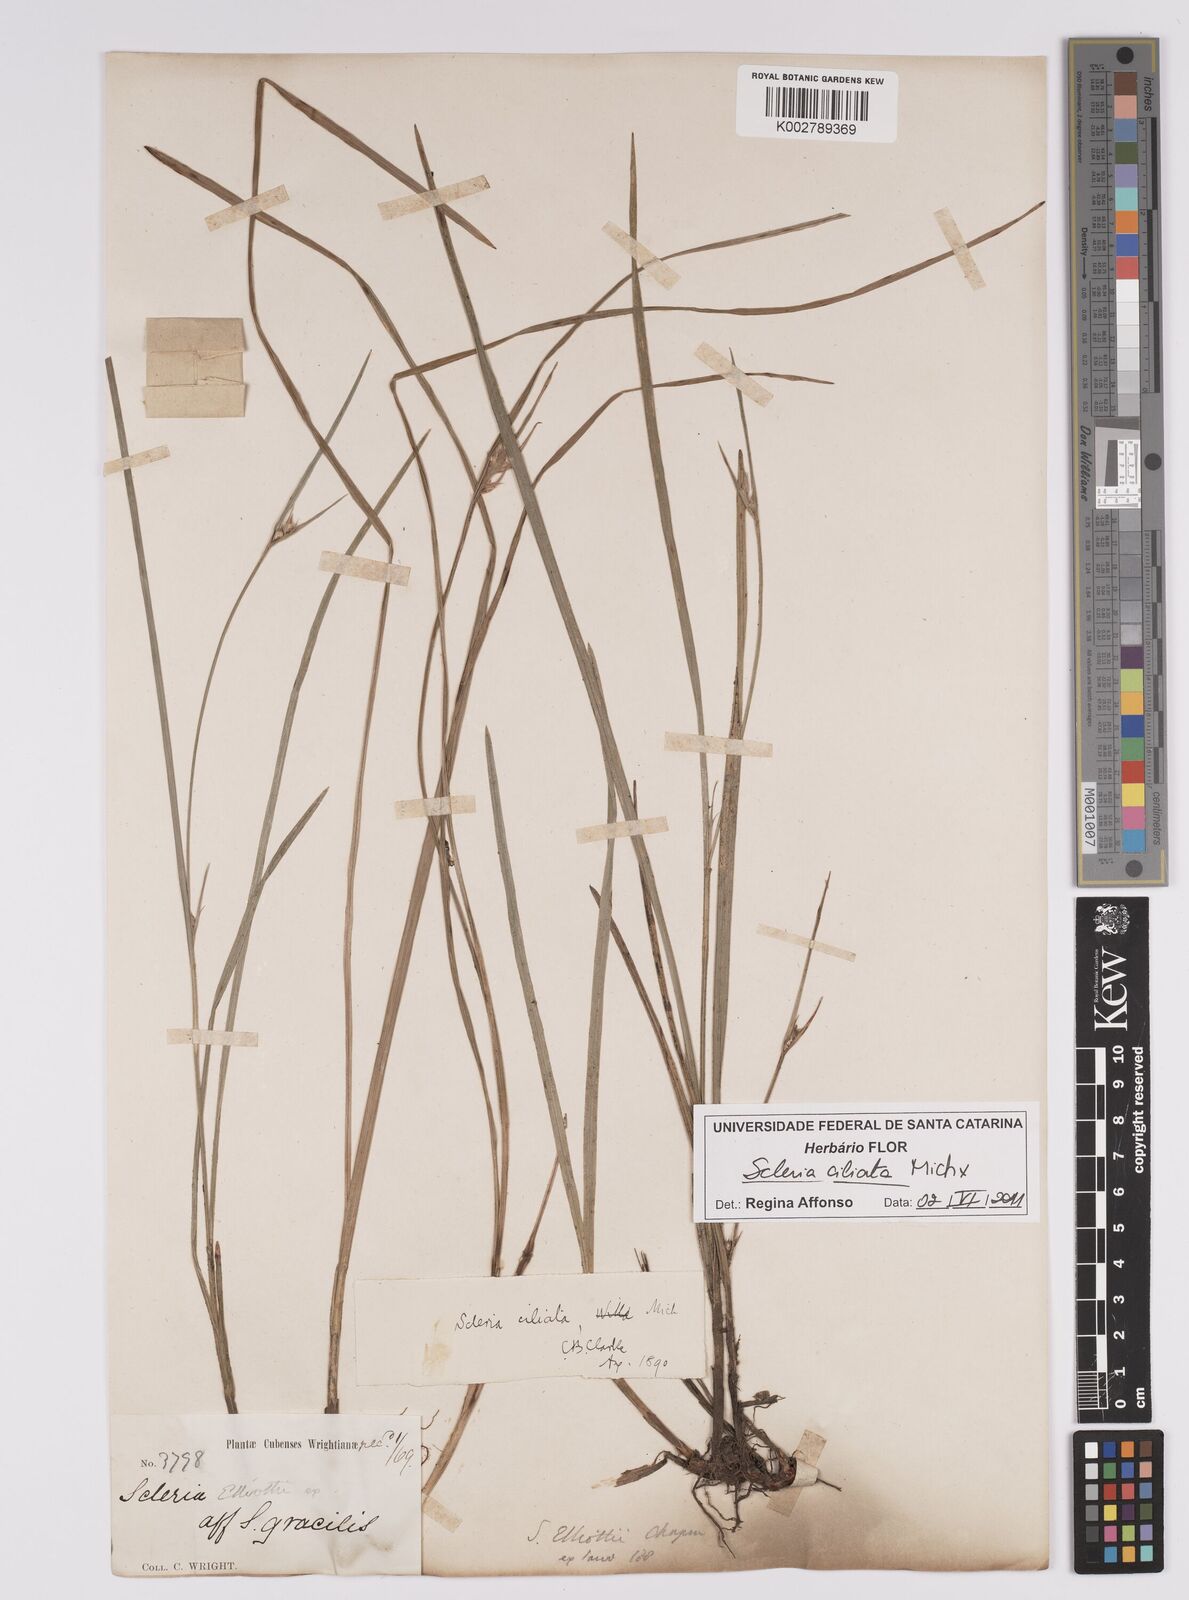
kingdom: Plantae
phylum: Tracheophyta
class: Liliopsida
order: Poales
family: Cyperaceae
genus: Scleria
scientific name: Scleria ciliata
